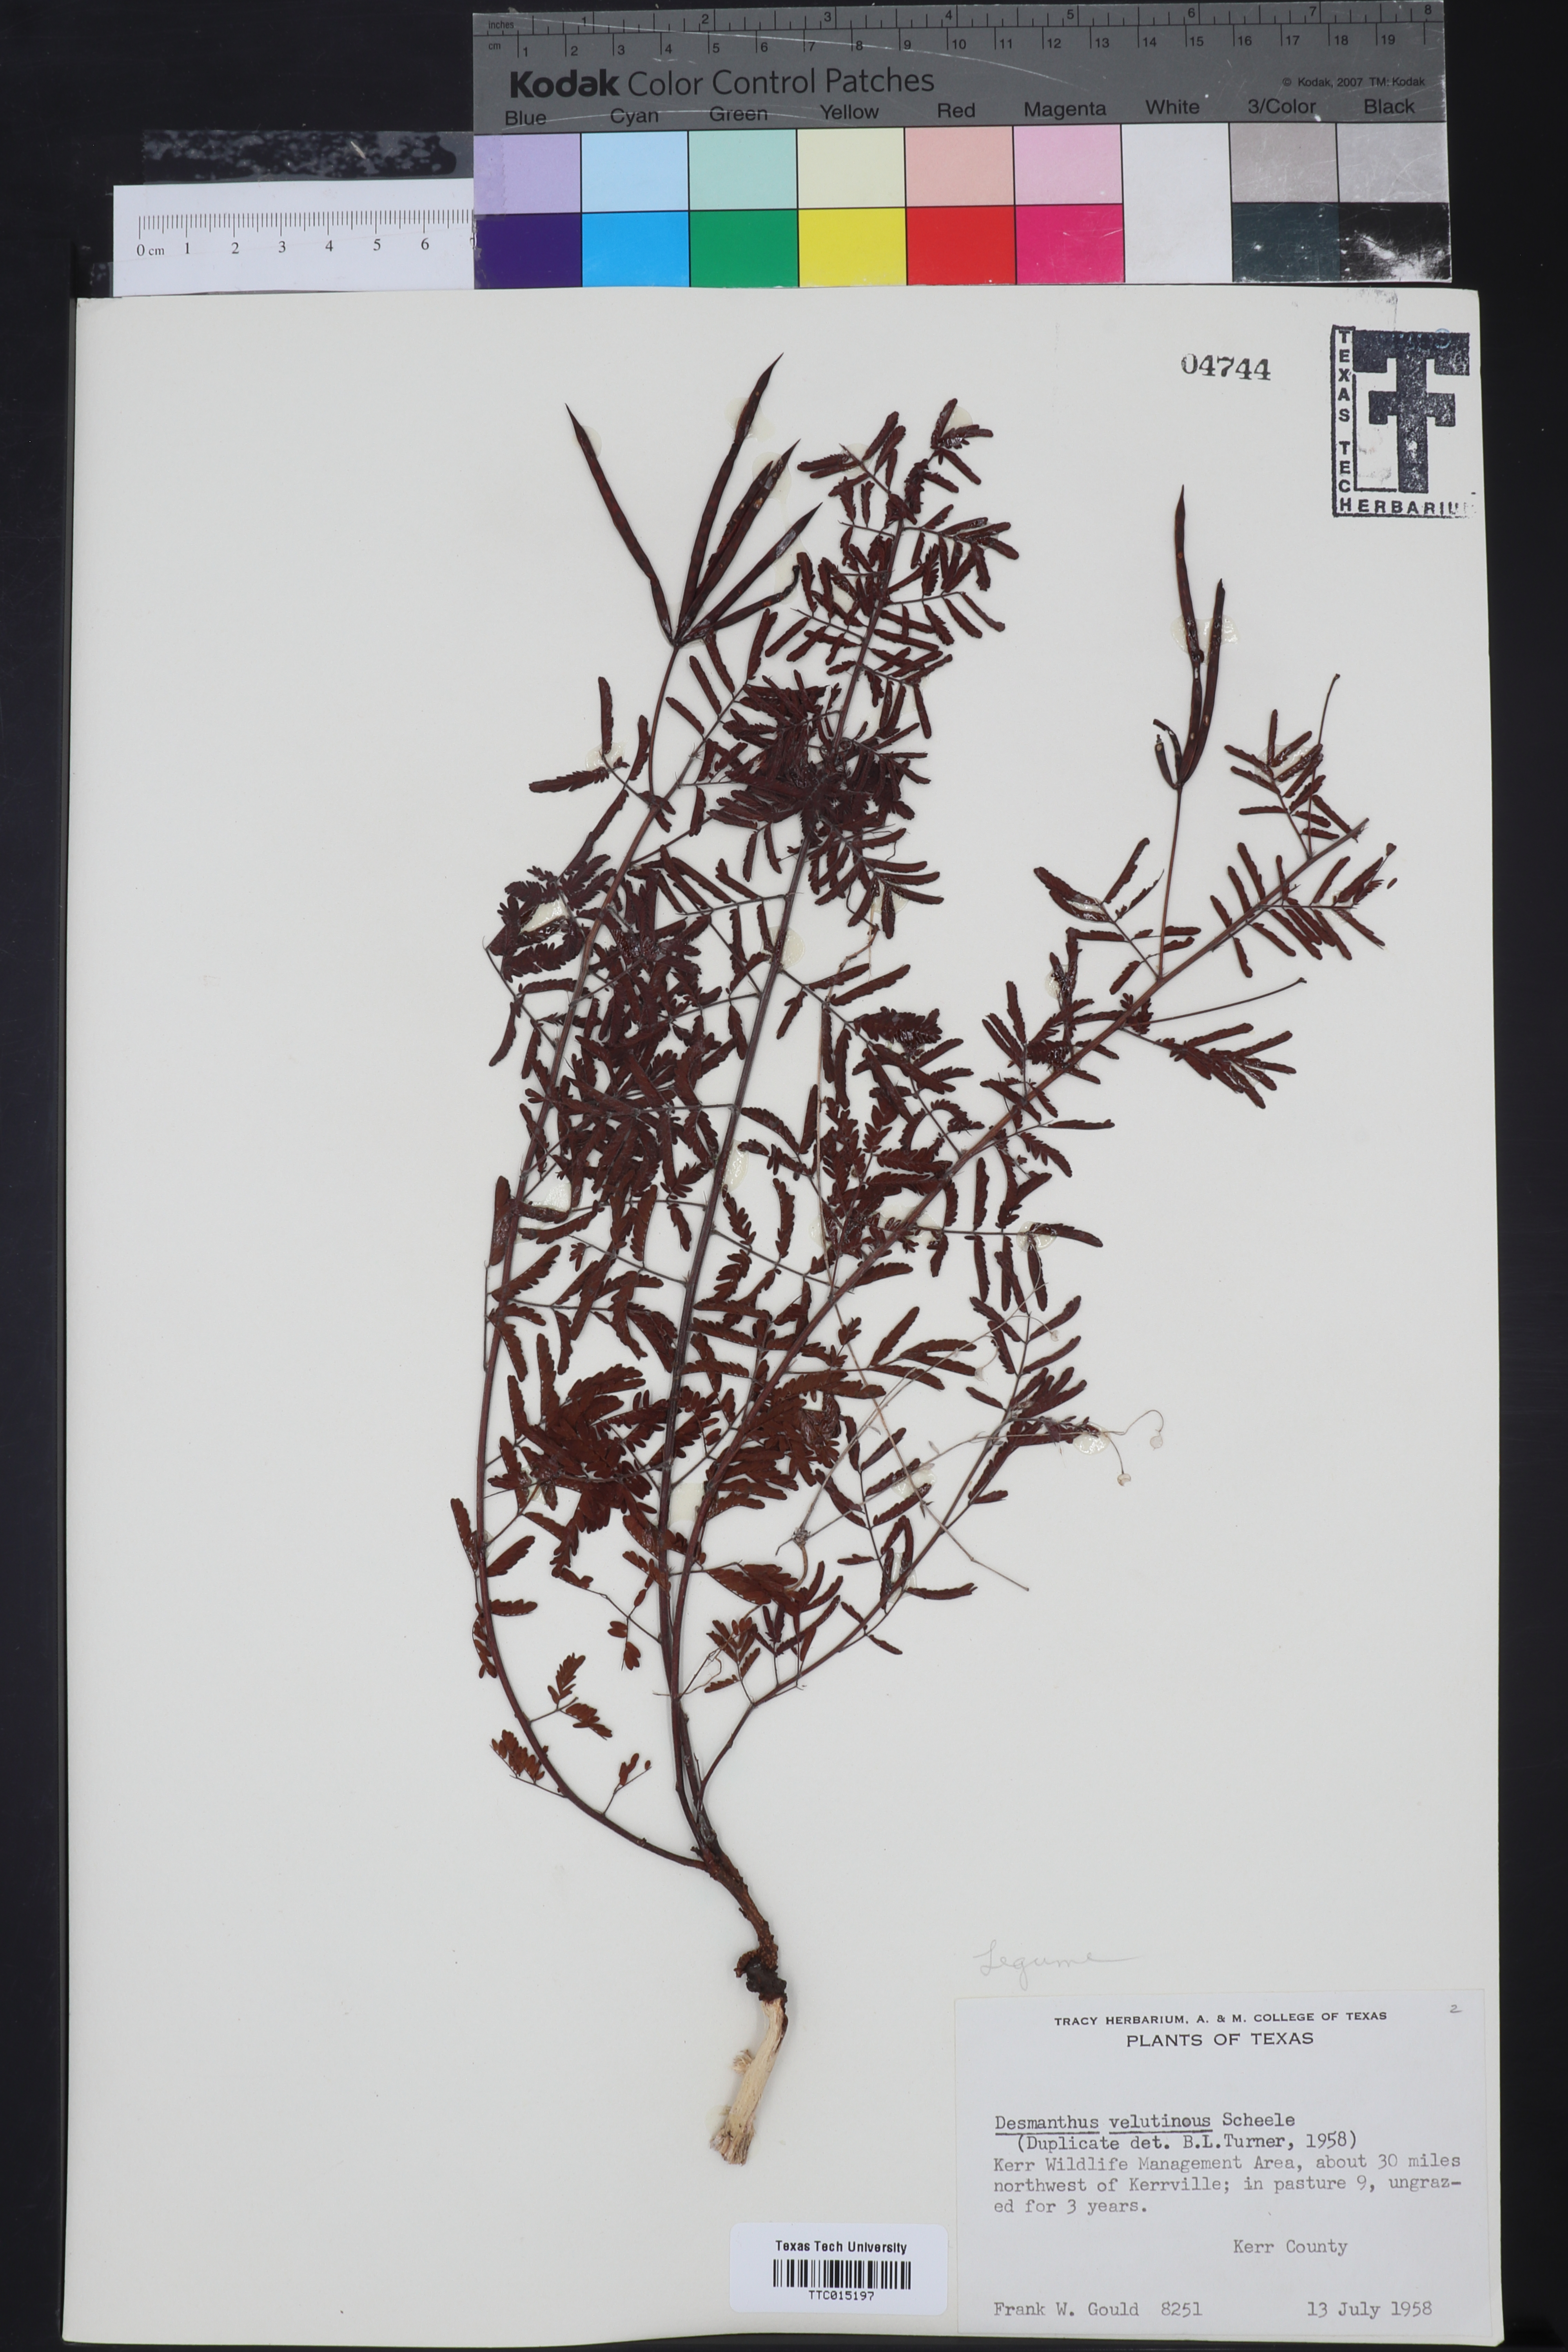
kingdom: Plantae
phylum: Tracheophyta
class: Magnoliopsida
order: Fabales
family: Fabaceae
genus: Desmanthus
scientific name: Desmanthus velutinus
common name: Velvet bundle-flower
